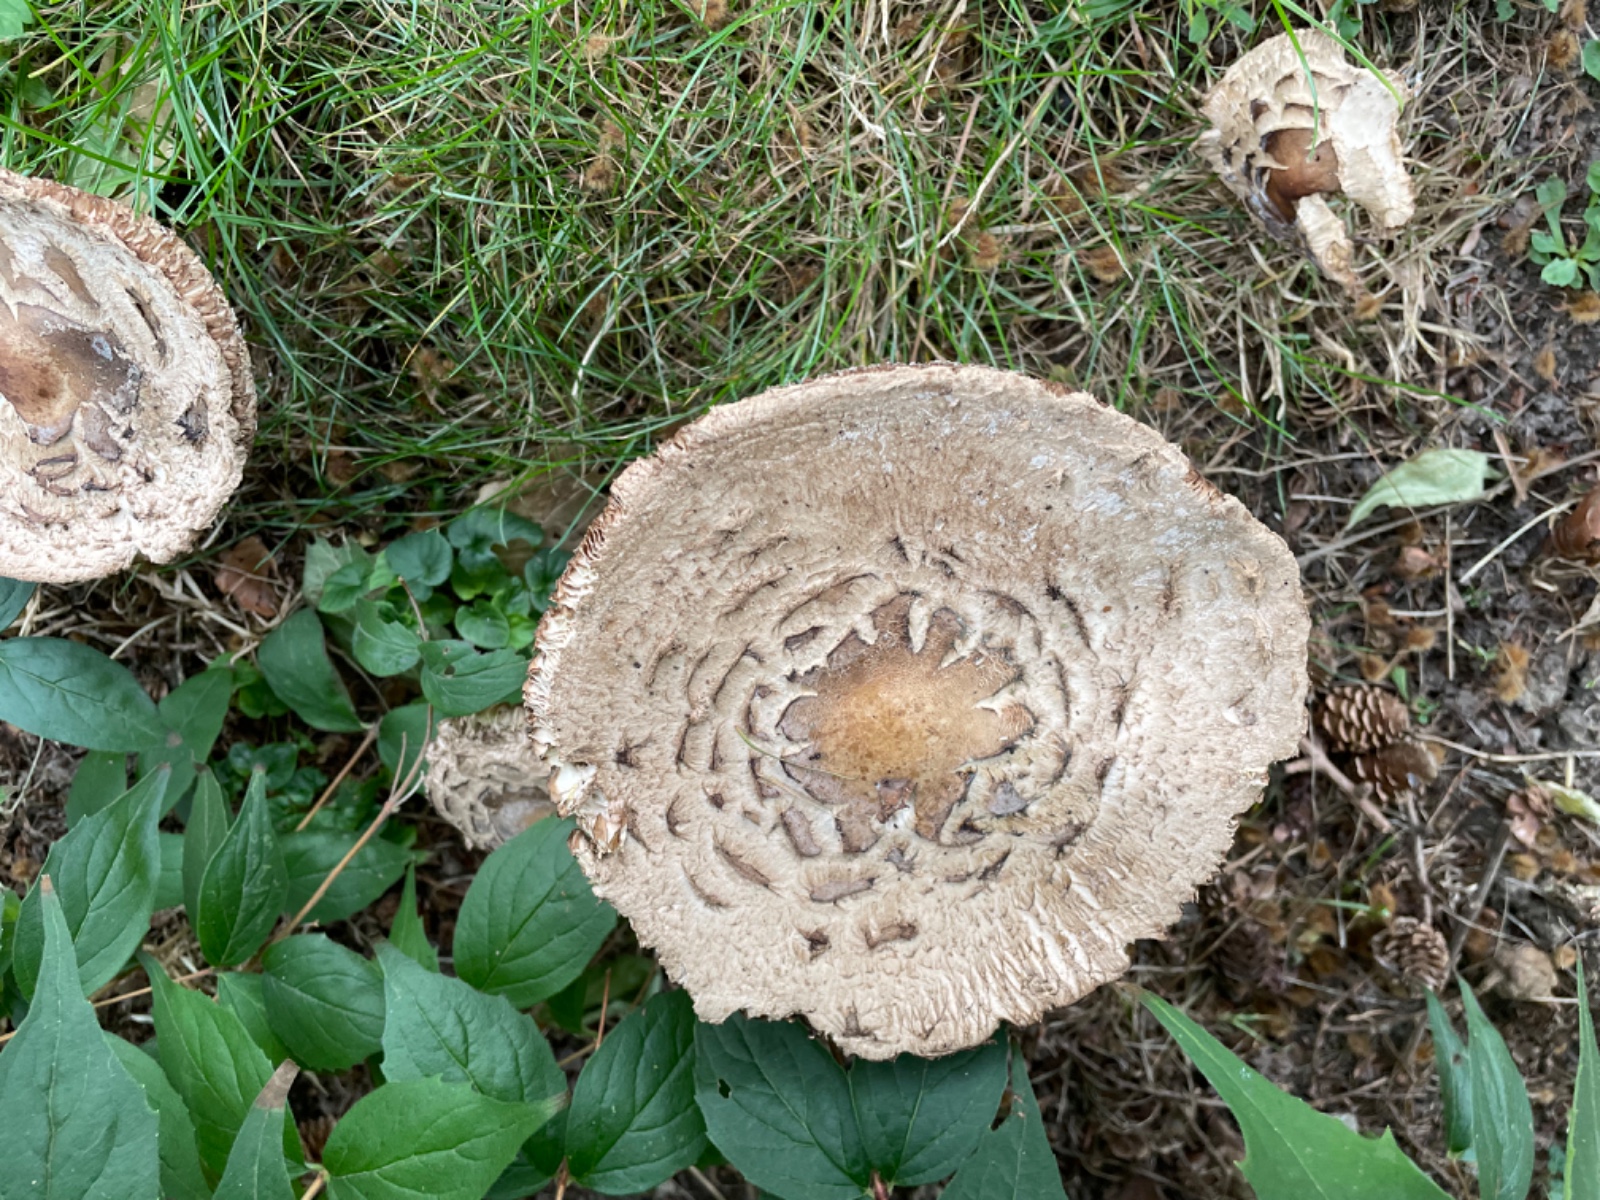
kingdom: Fungi
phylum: Basidiomycota
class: Agaricomycetes
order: Agaricales
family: Agaricaceae
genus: Chlorophyllum
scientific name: Chlorophyllum
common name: rabarberhat
